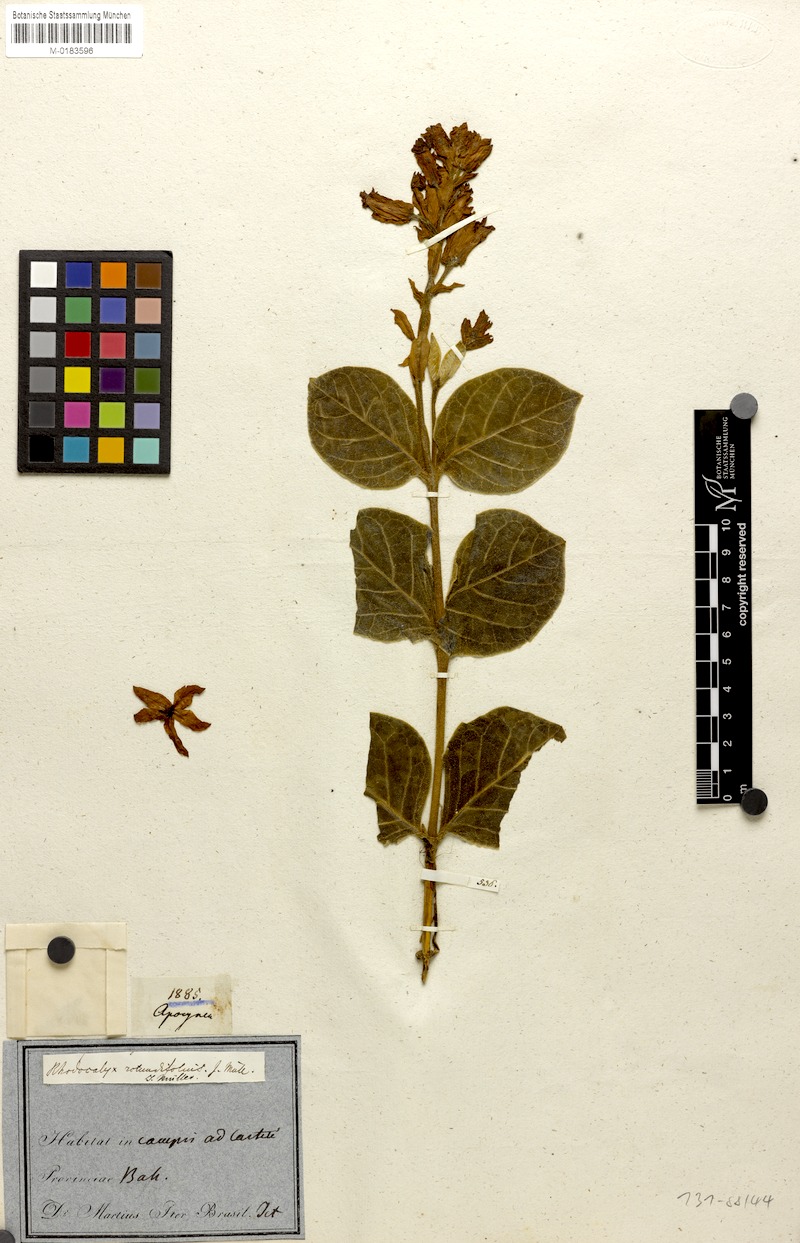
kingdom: Plantae
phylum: Tracheophyta
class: Magnoliopsida
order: Gentianales
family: Apocynaceae
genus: Prestonia
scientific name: Prestonia erecta
